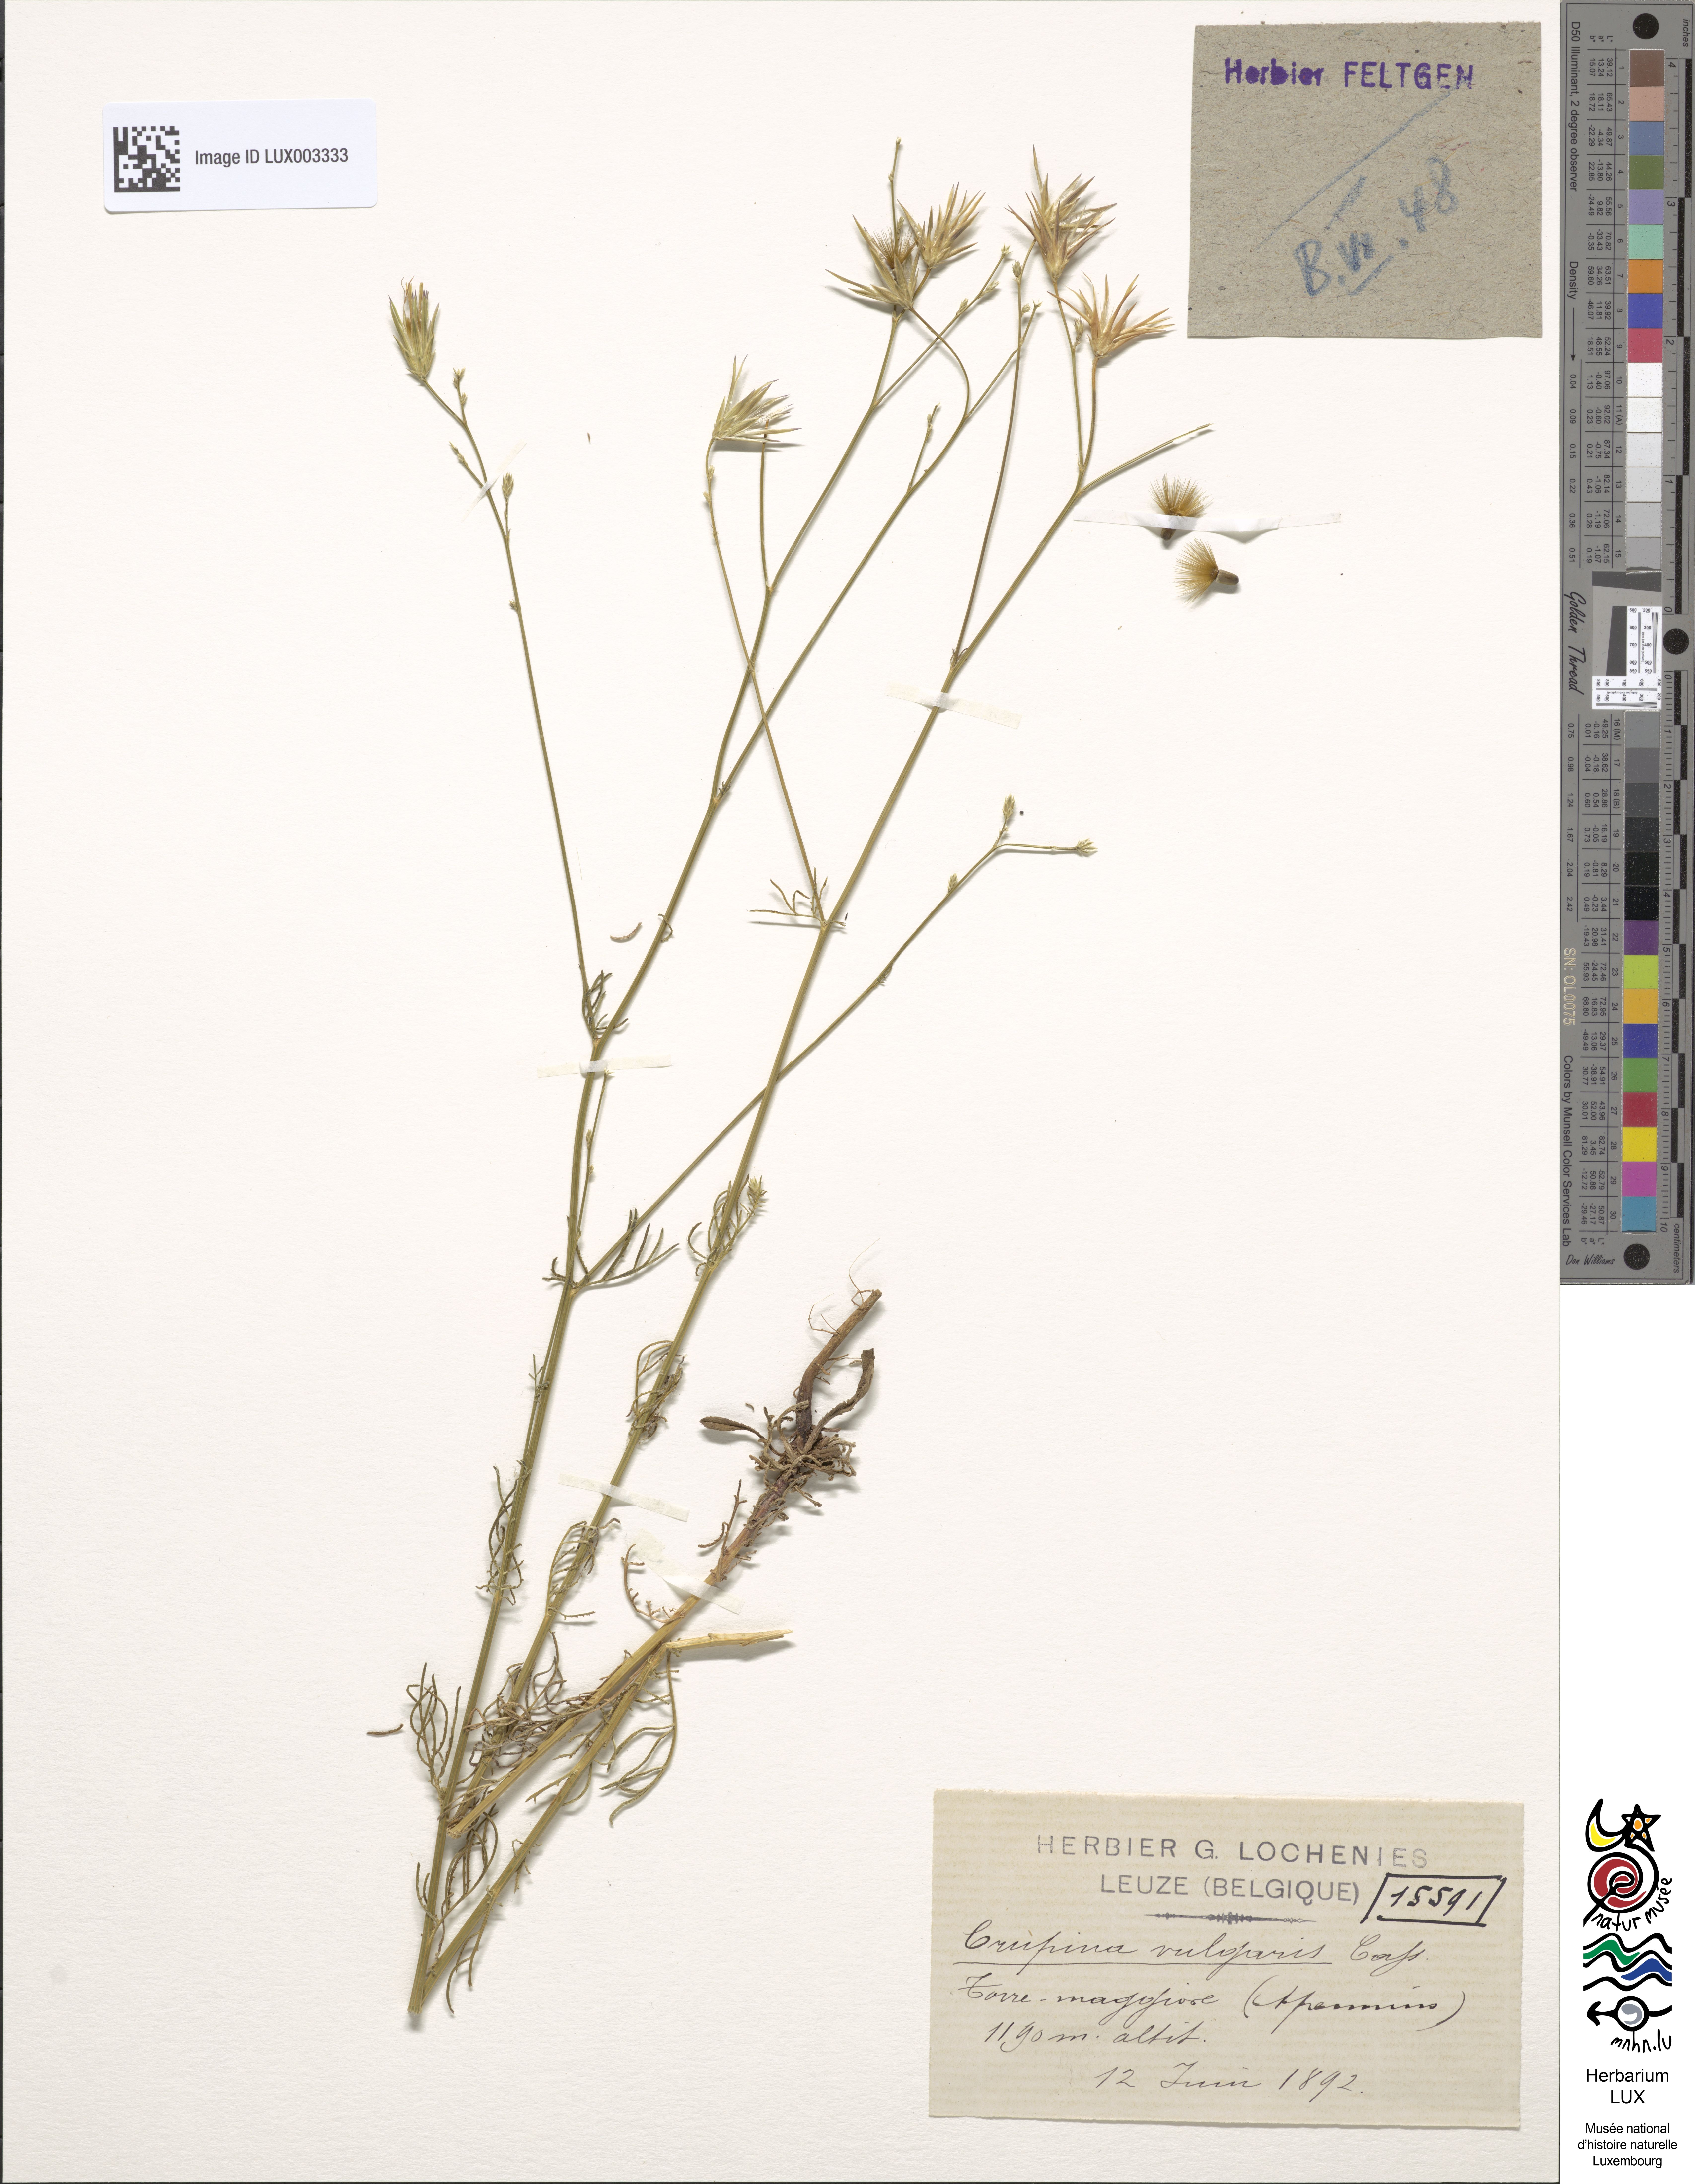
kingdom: Plantae
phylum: Tracheophyta
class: Magnoliopsida
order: Asterales
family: Asteraceae
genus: Crupina
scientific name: Crupina vulgaris
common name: Common crupina
